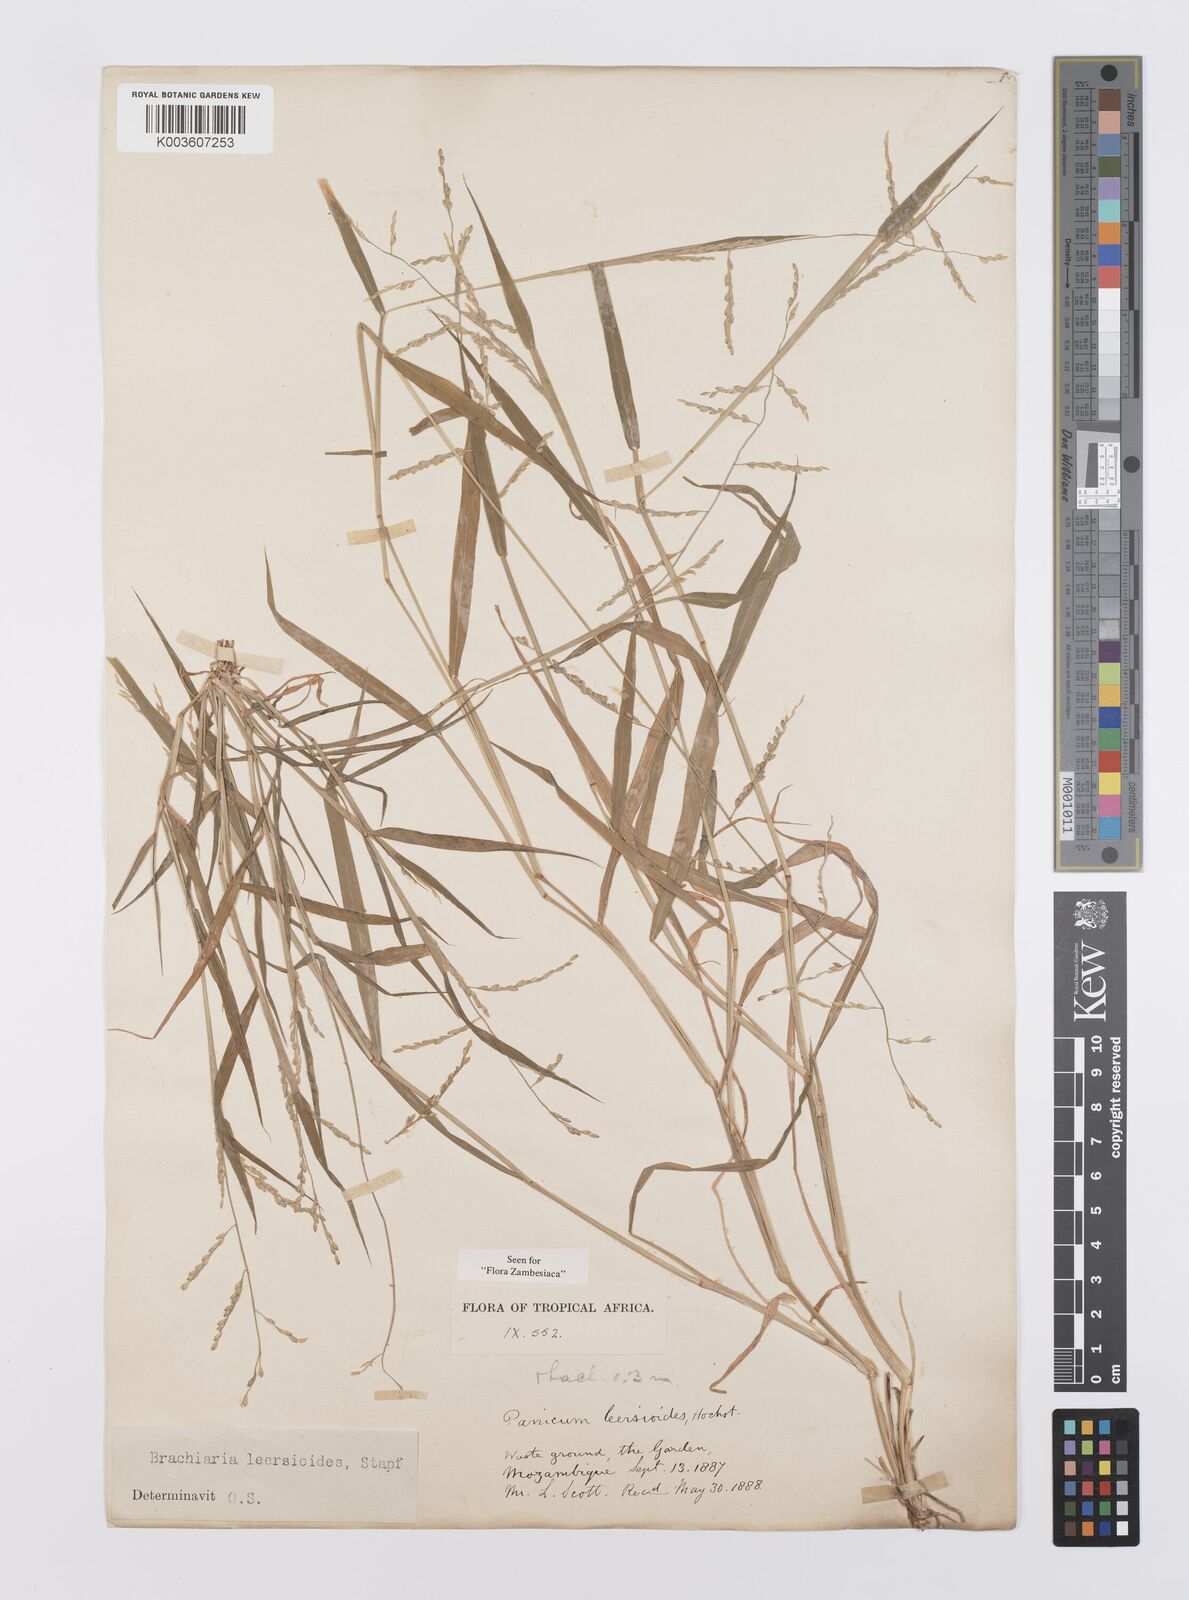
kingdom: Plantae
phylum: Tracheophyta
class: Liliopsida
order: Poales
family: Poaceae
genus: Urochloa
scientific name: Urochloa leersioides
